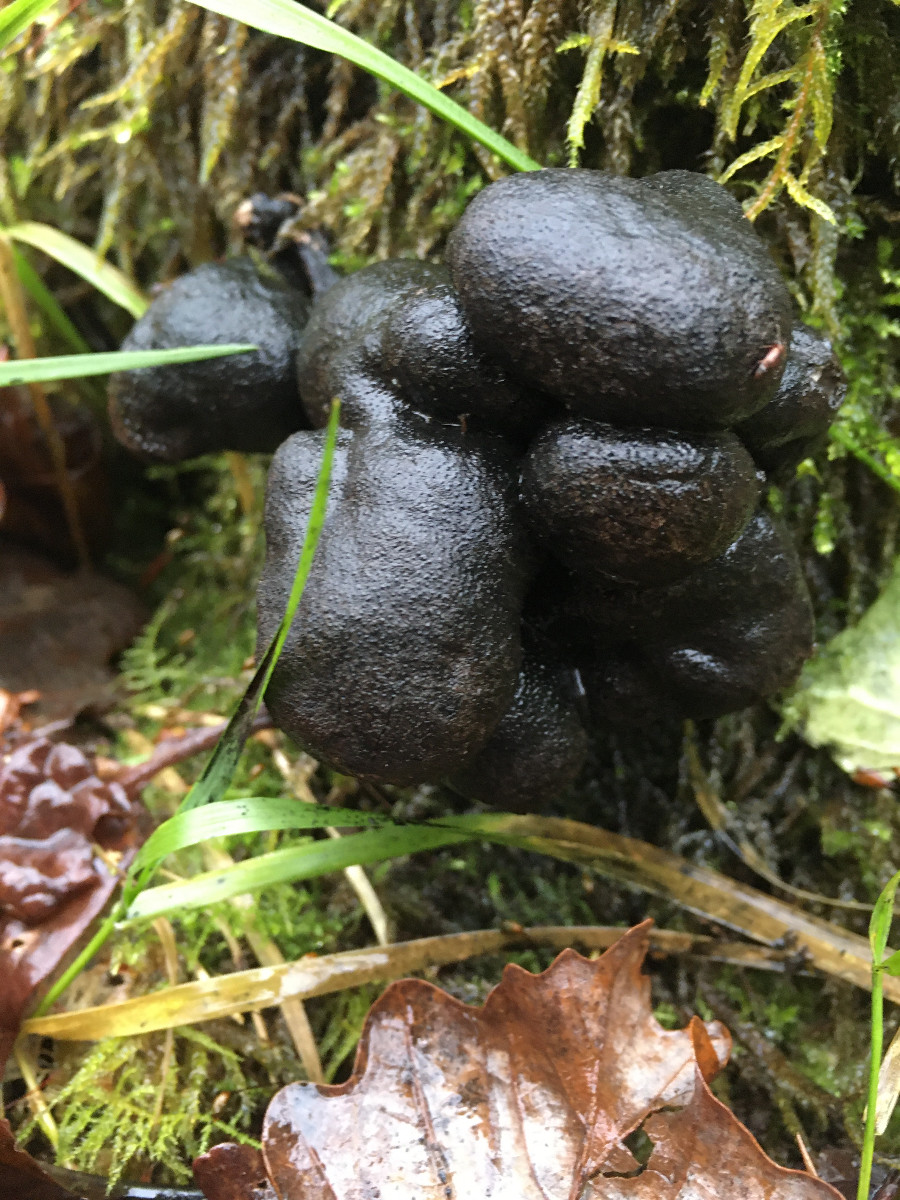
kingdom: Fungi
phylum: Ascomycota
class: Sordariomycetes
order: Xylariales
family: Xylariaceae
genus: Xylaria
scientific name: Xylaria polymorpha
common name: kølle-stødsvamp
